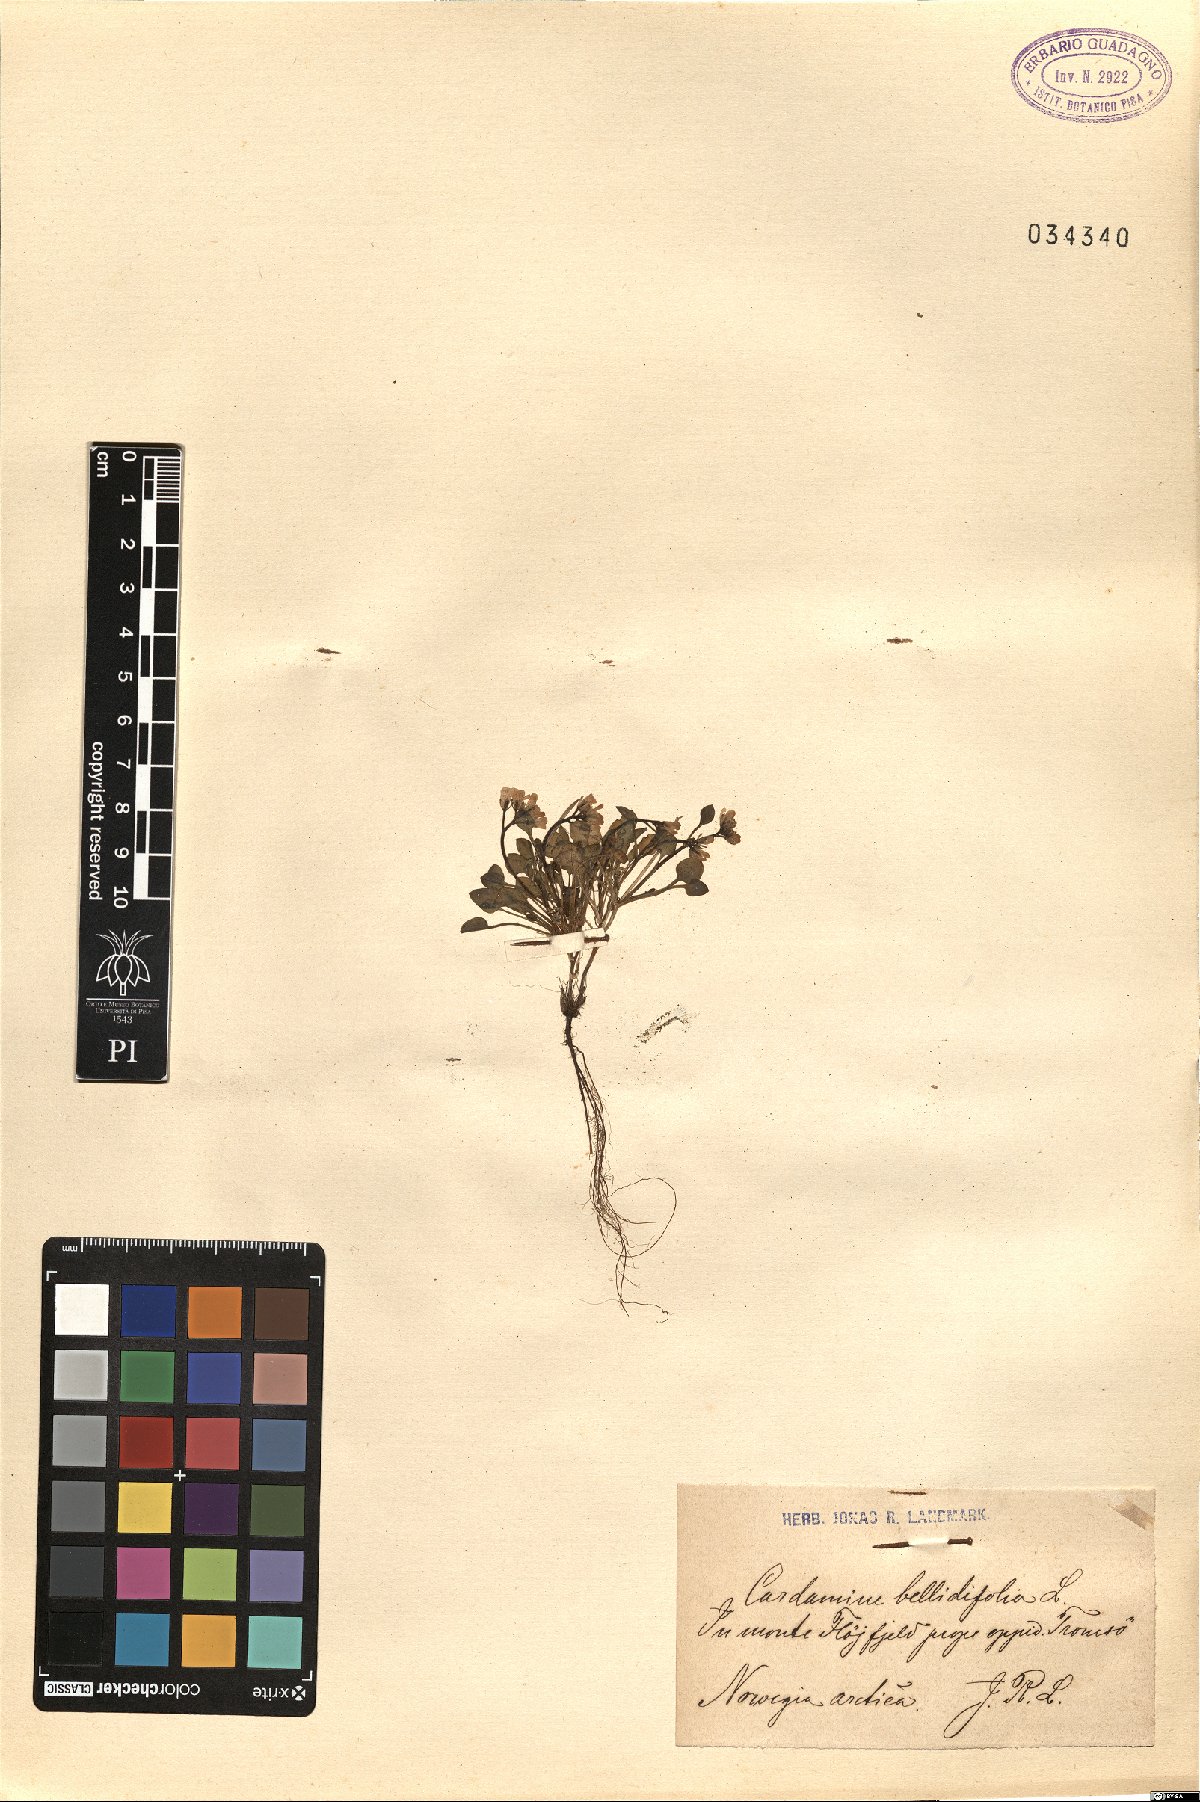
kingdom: Plantae
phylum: Tracheophyta
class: Magnoliopsida
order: Brassicales
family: Brassicaceae
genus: Cardamine
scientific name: Cardamine bellidifolia
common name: Alpine bittercress
